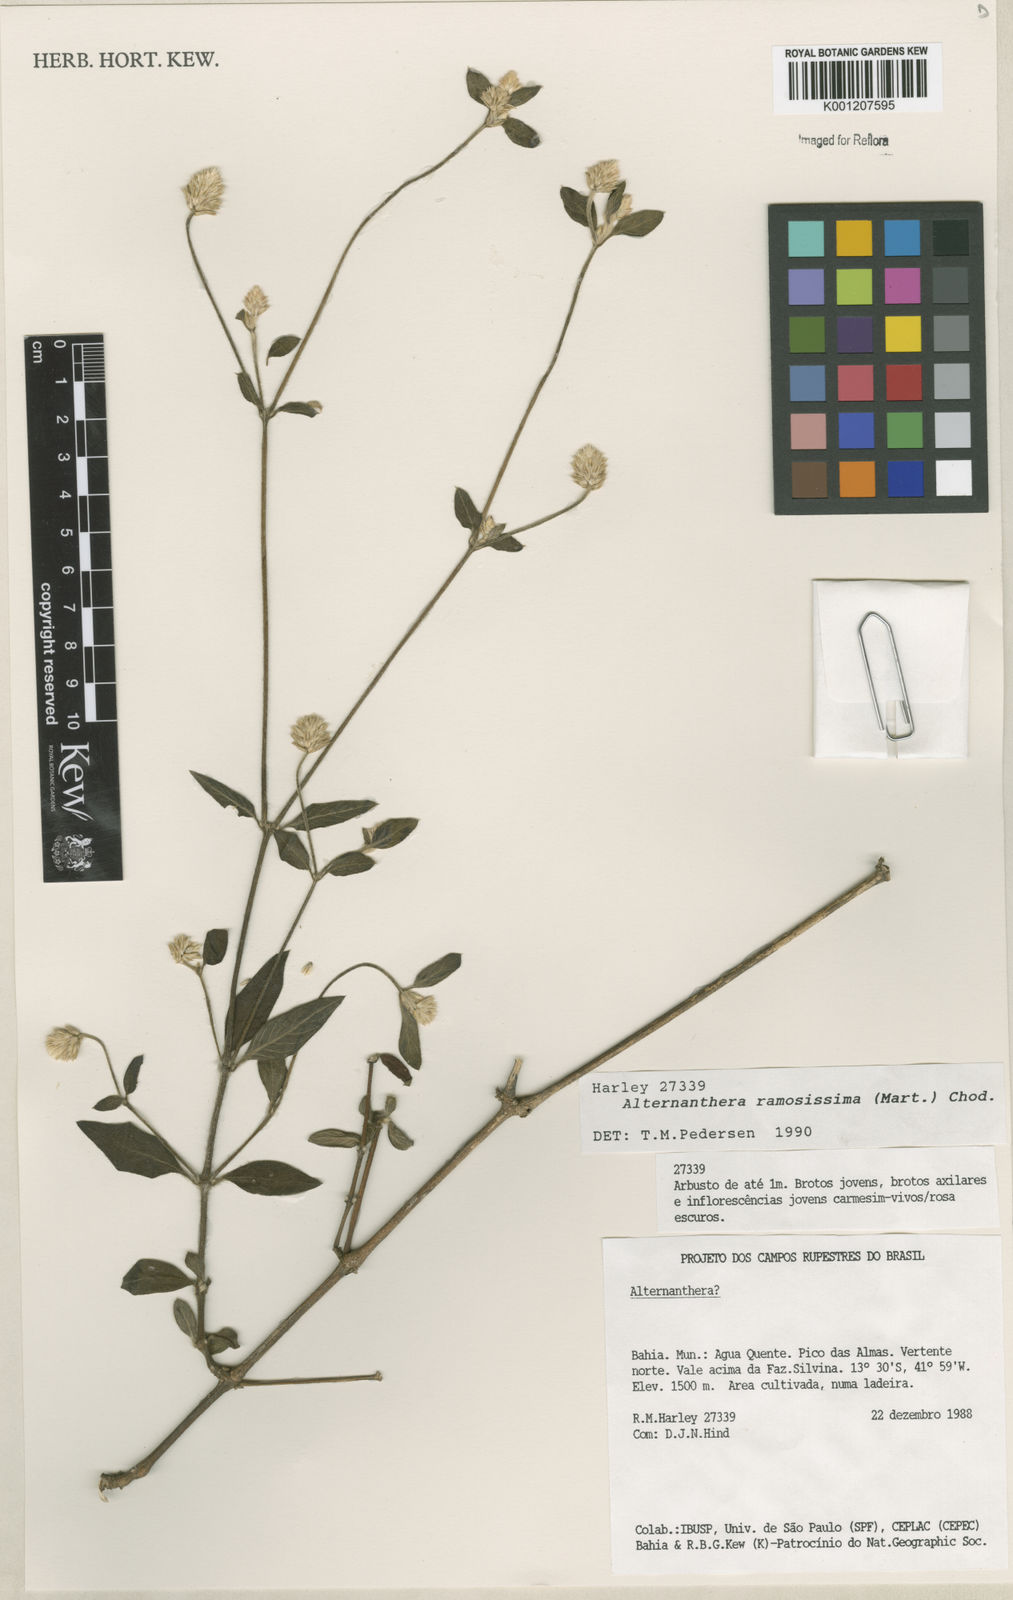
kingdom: Plantae
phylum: Tracheophyta
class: Magnoliopsida
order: Caryophyllales
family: Amaranthaceae
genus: Alternanthera
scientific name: Alternanthera ramosissima
